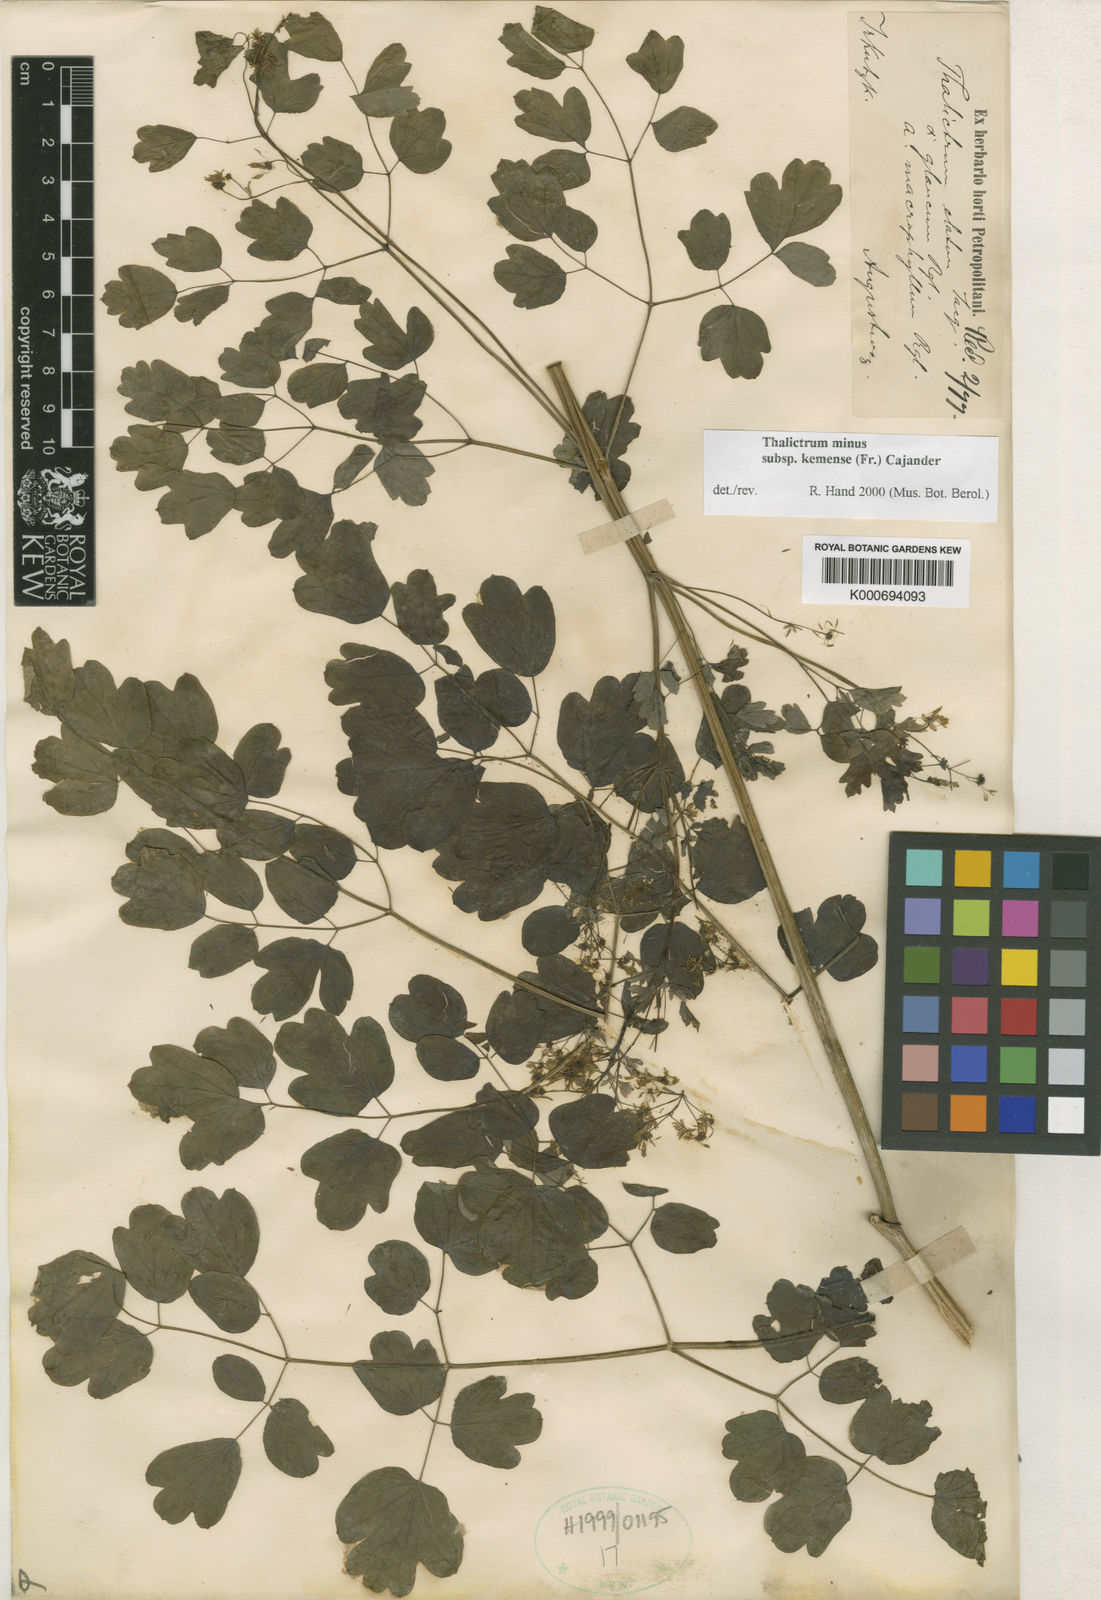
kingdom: Plantae
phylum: Tracheophyta
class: Magnoliopsida
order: Ranunculales
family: Ranunculaceae
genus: Thalictrum
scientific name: Thalictrum minus
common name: Lesser meadow-rue
